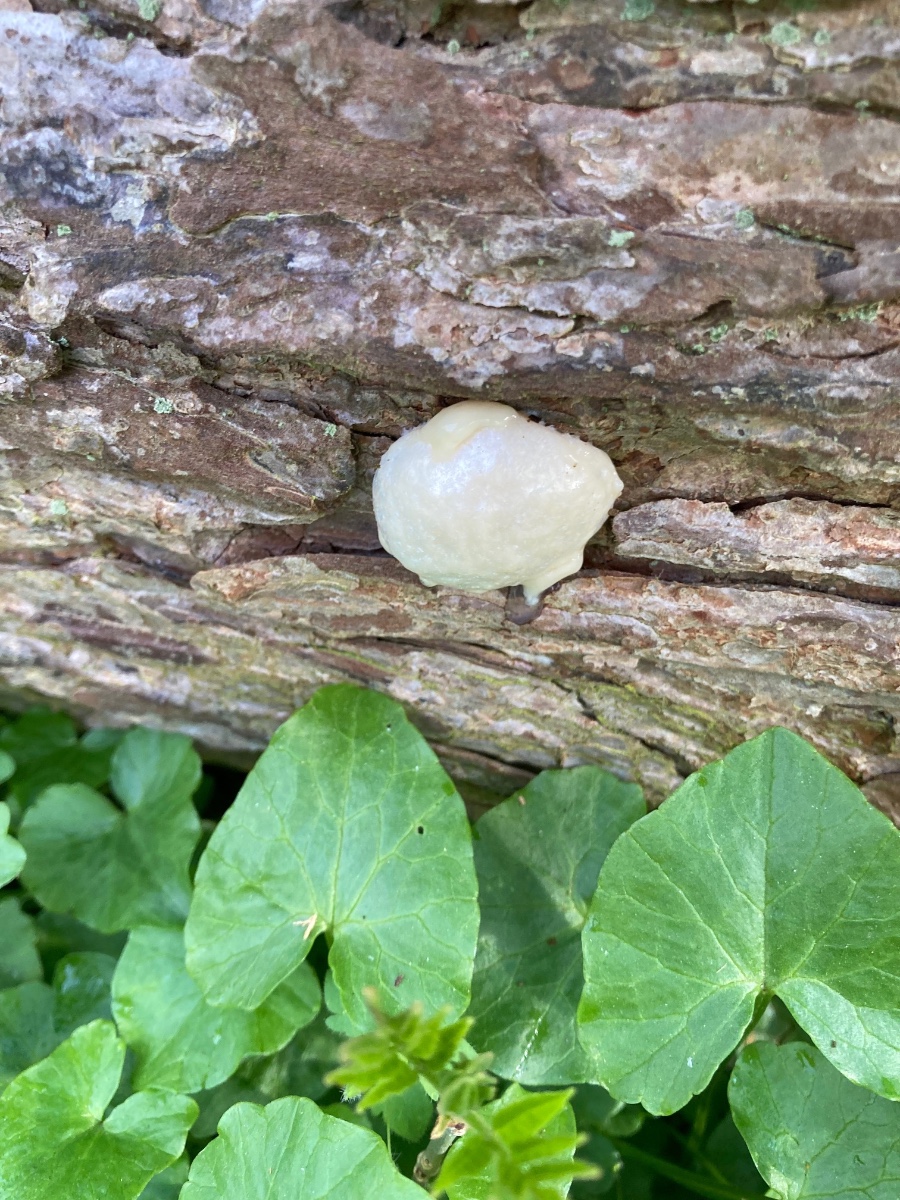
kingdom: Protozoa
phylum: Mycetozoa
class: Myxomycetes
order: Cribrariales
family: Tubiferaceae
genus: Reticularia
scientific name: Reticularia lycoperdon
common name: skinnende støvpude
